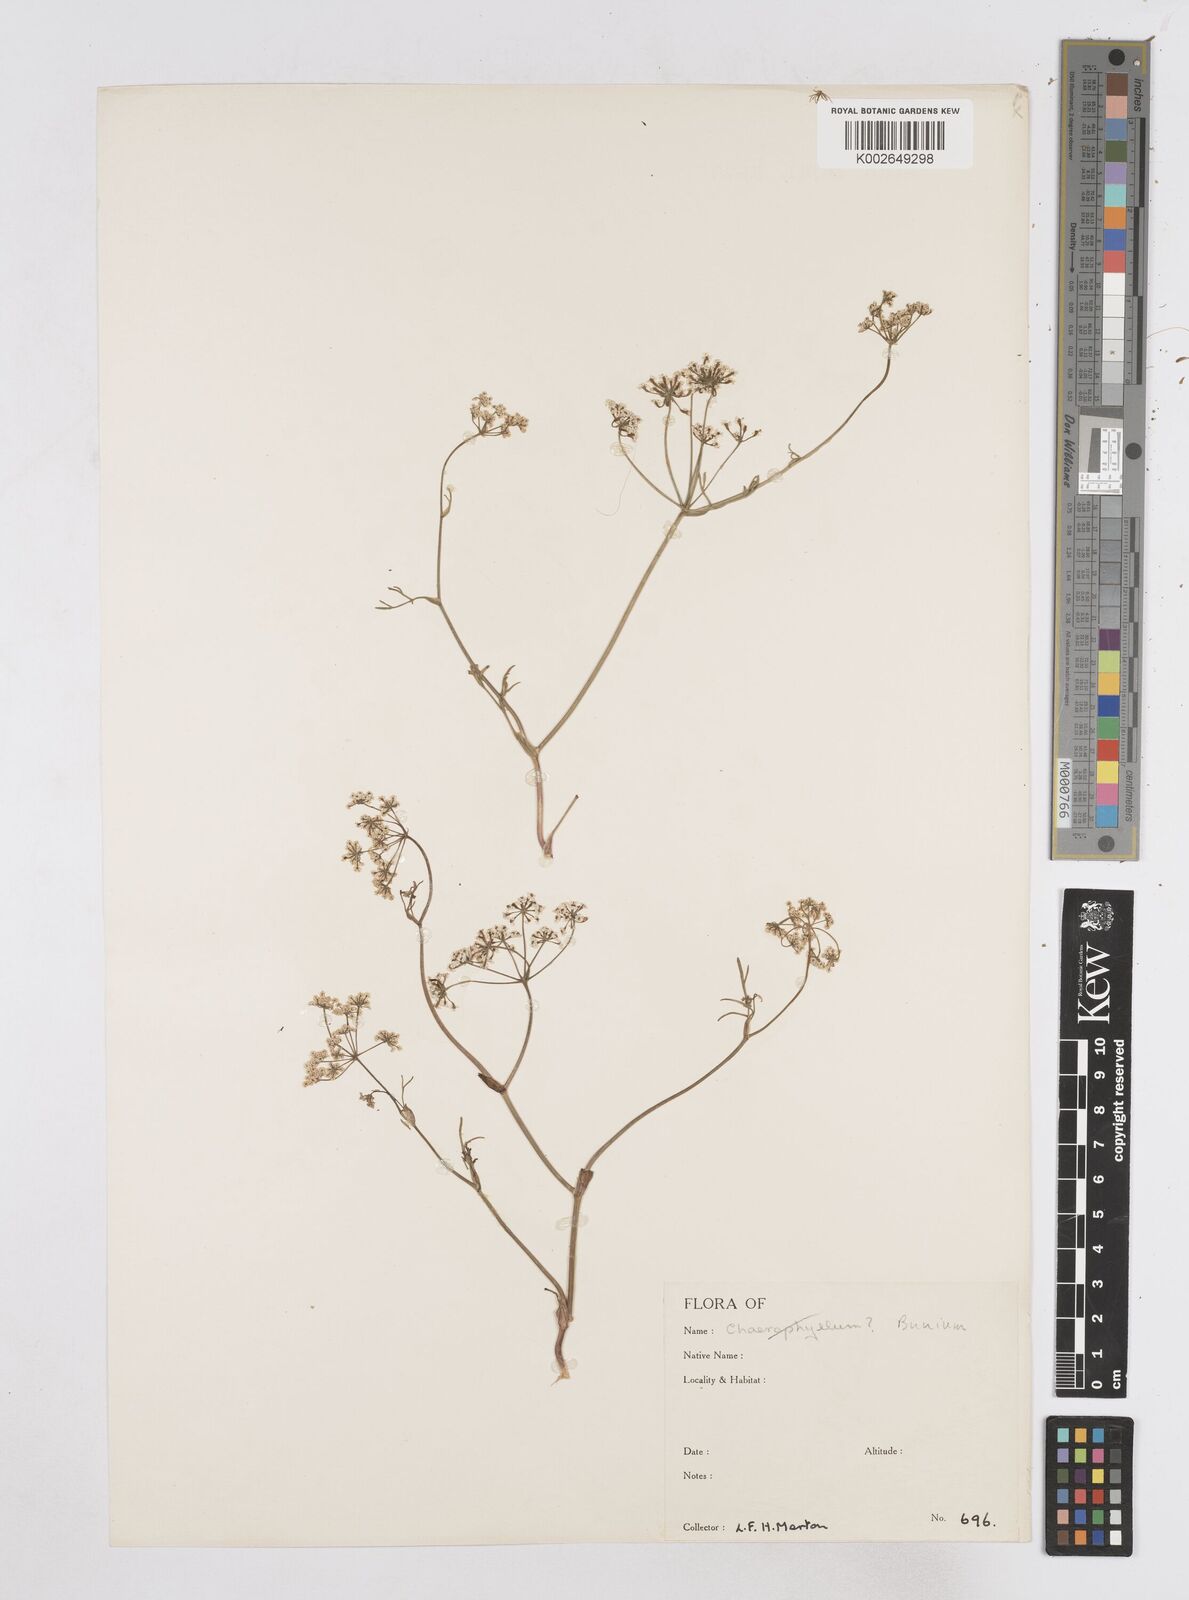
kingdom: Plantae
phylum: Tracheophyta
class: Magnoliopsida
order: Apiales
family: Apiaceae
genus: Bunium
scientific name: Bunium
